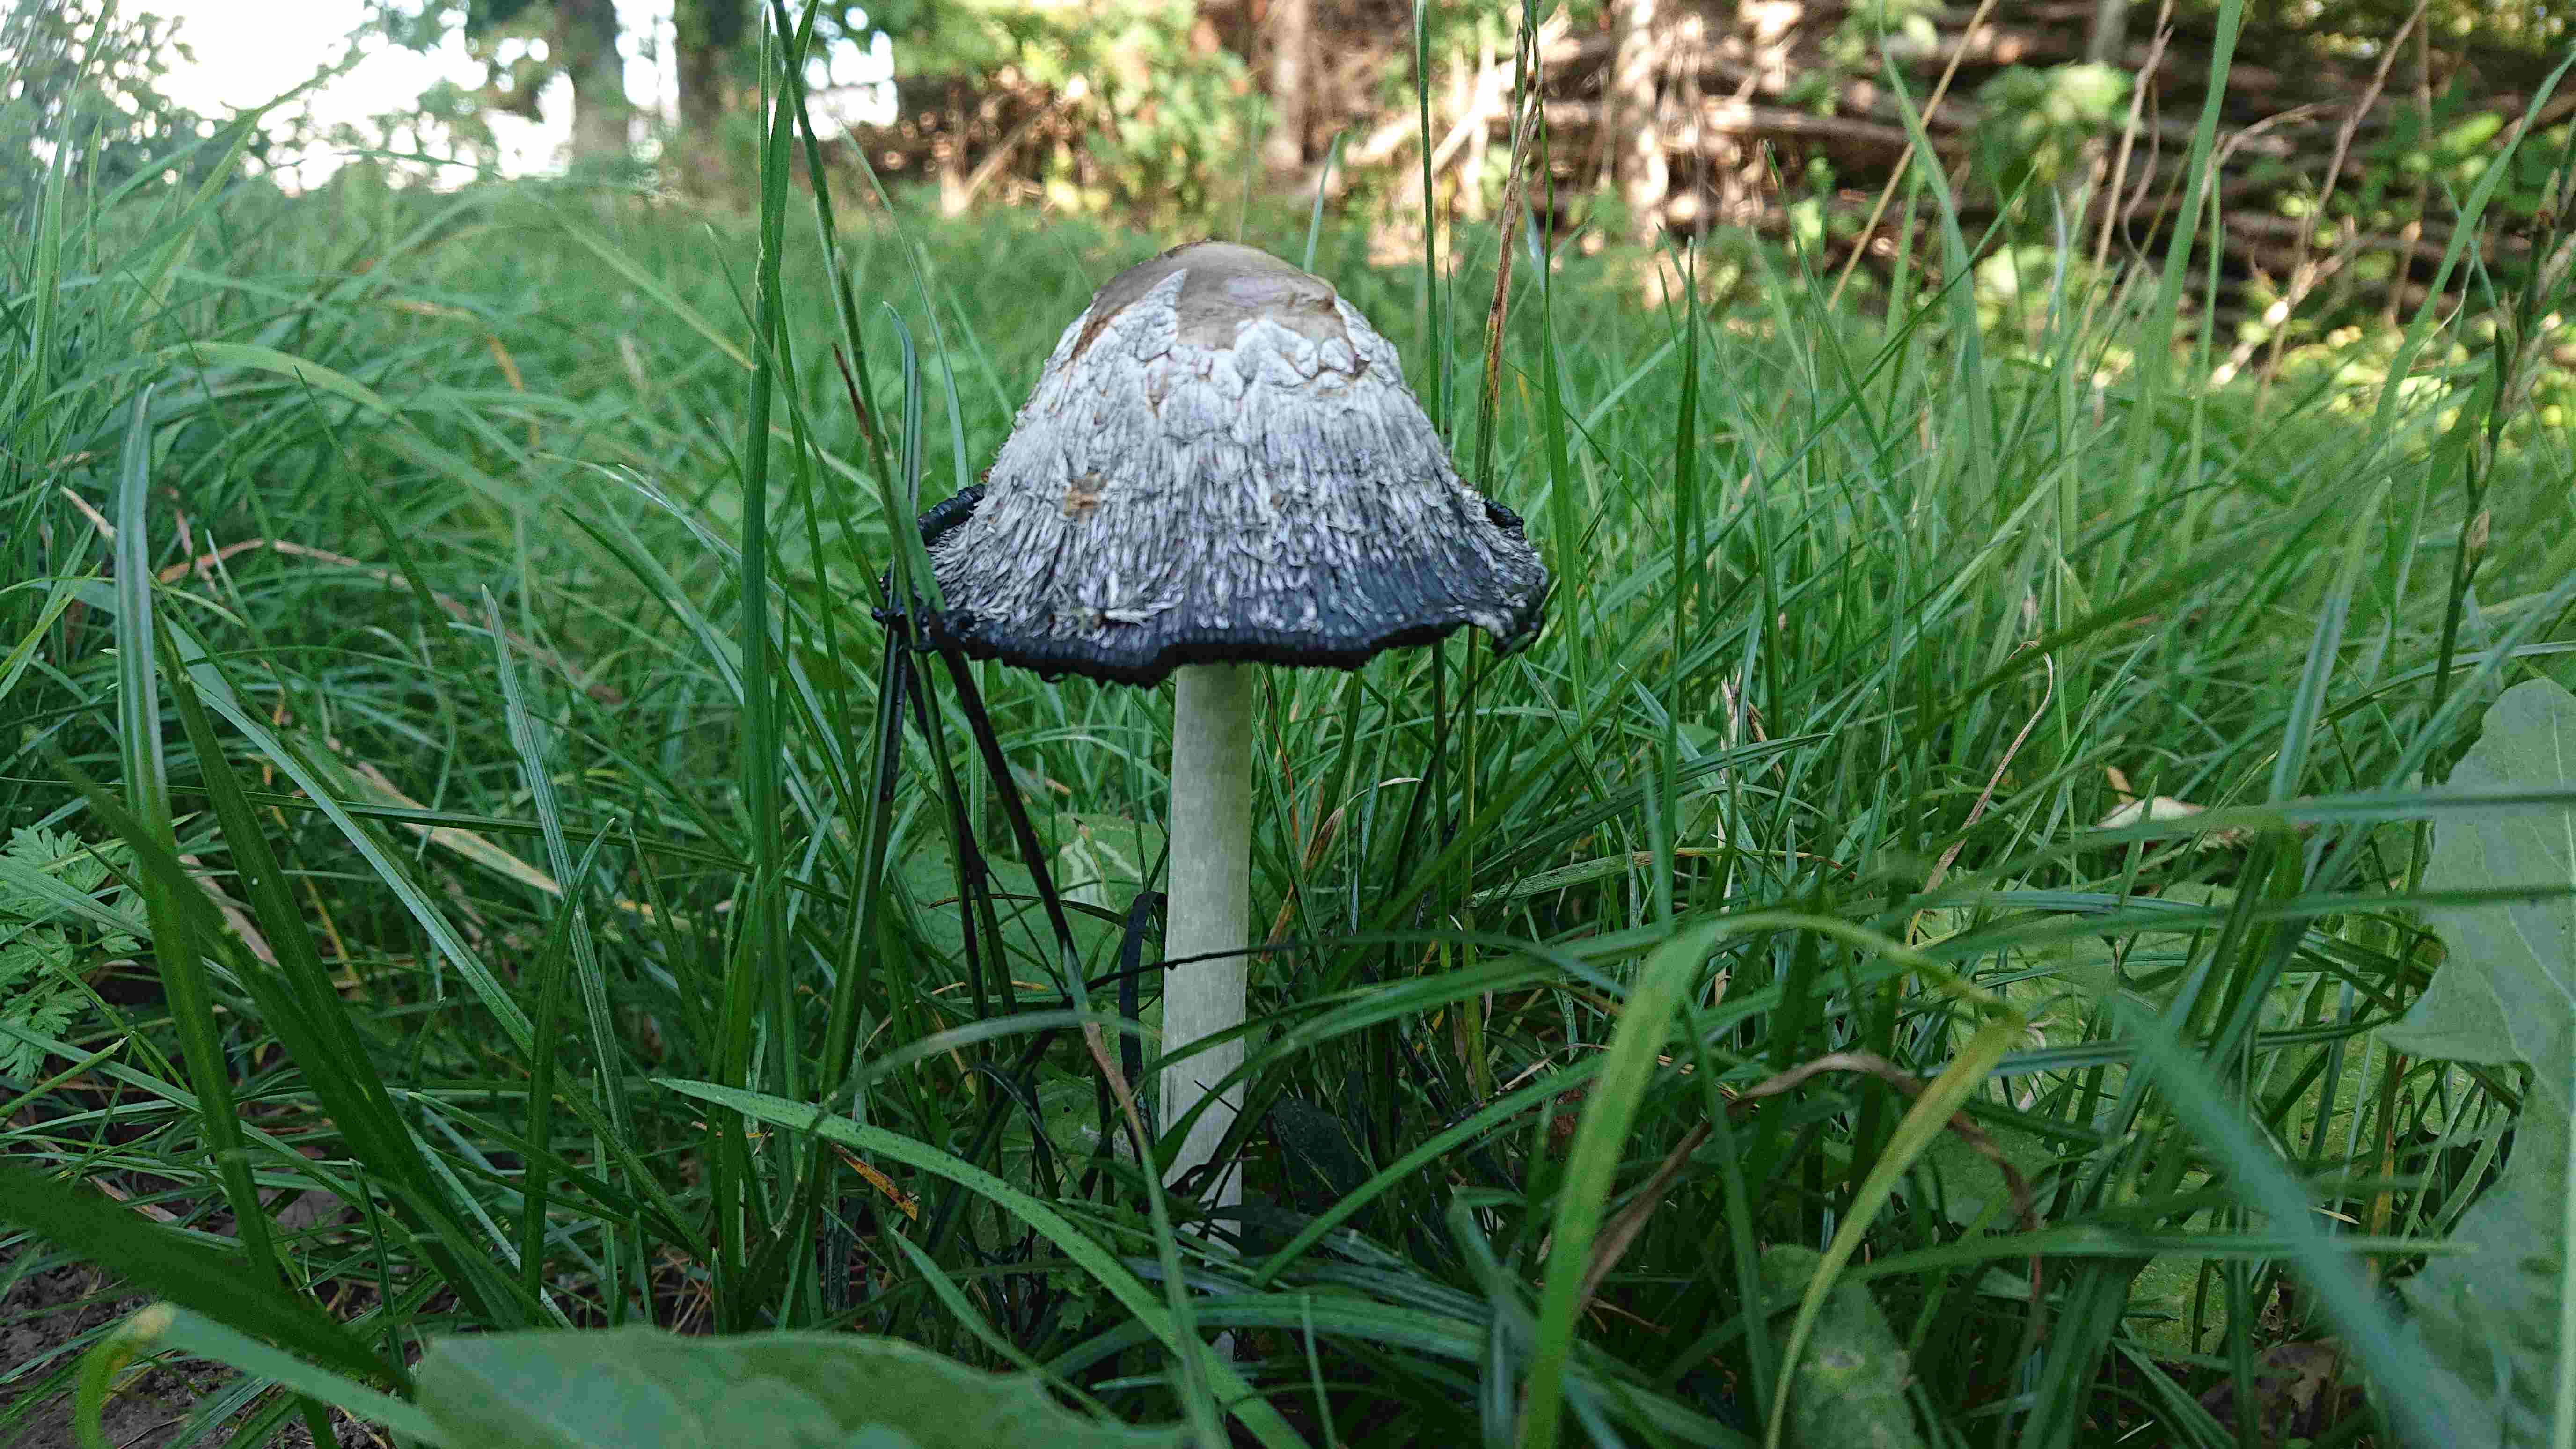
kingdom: Fungi
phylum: Basidiomycota
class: Agaricomycetes
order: Agaricales
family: Agaricaceae
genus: Coprinus
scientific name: Coprinus comatus
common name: stor parykhat
